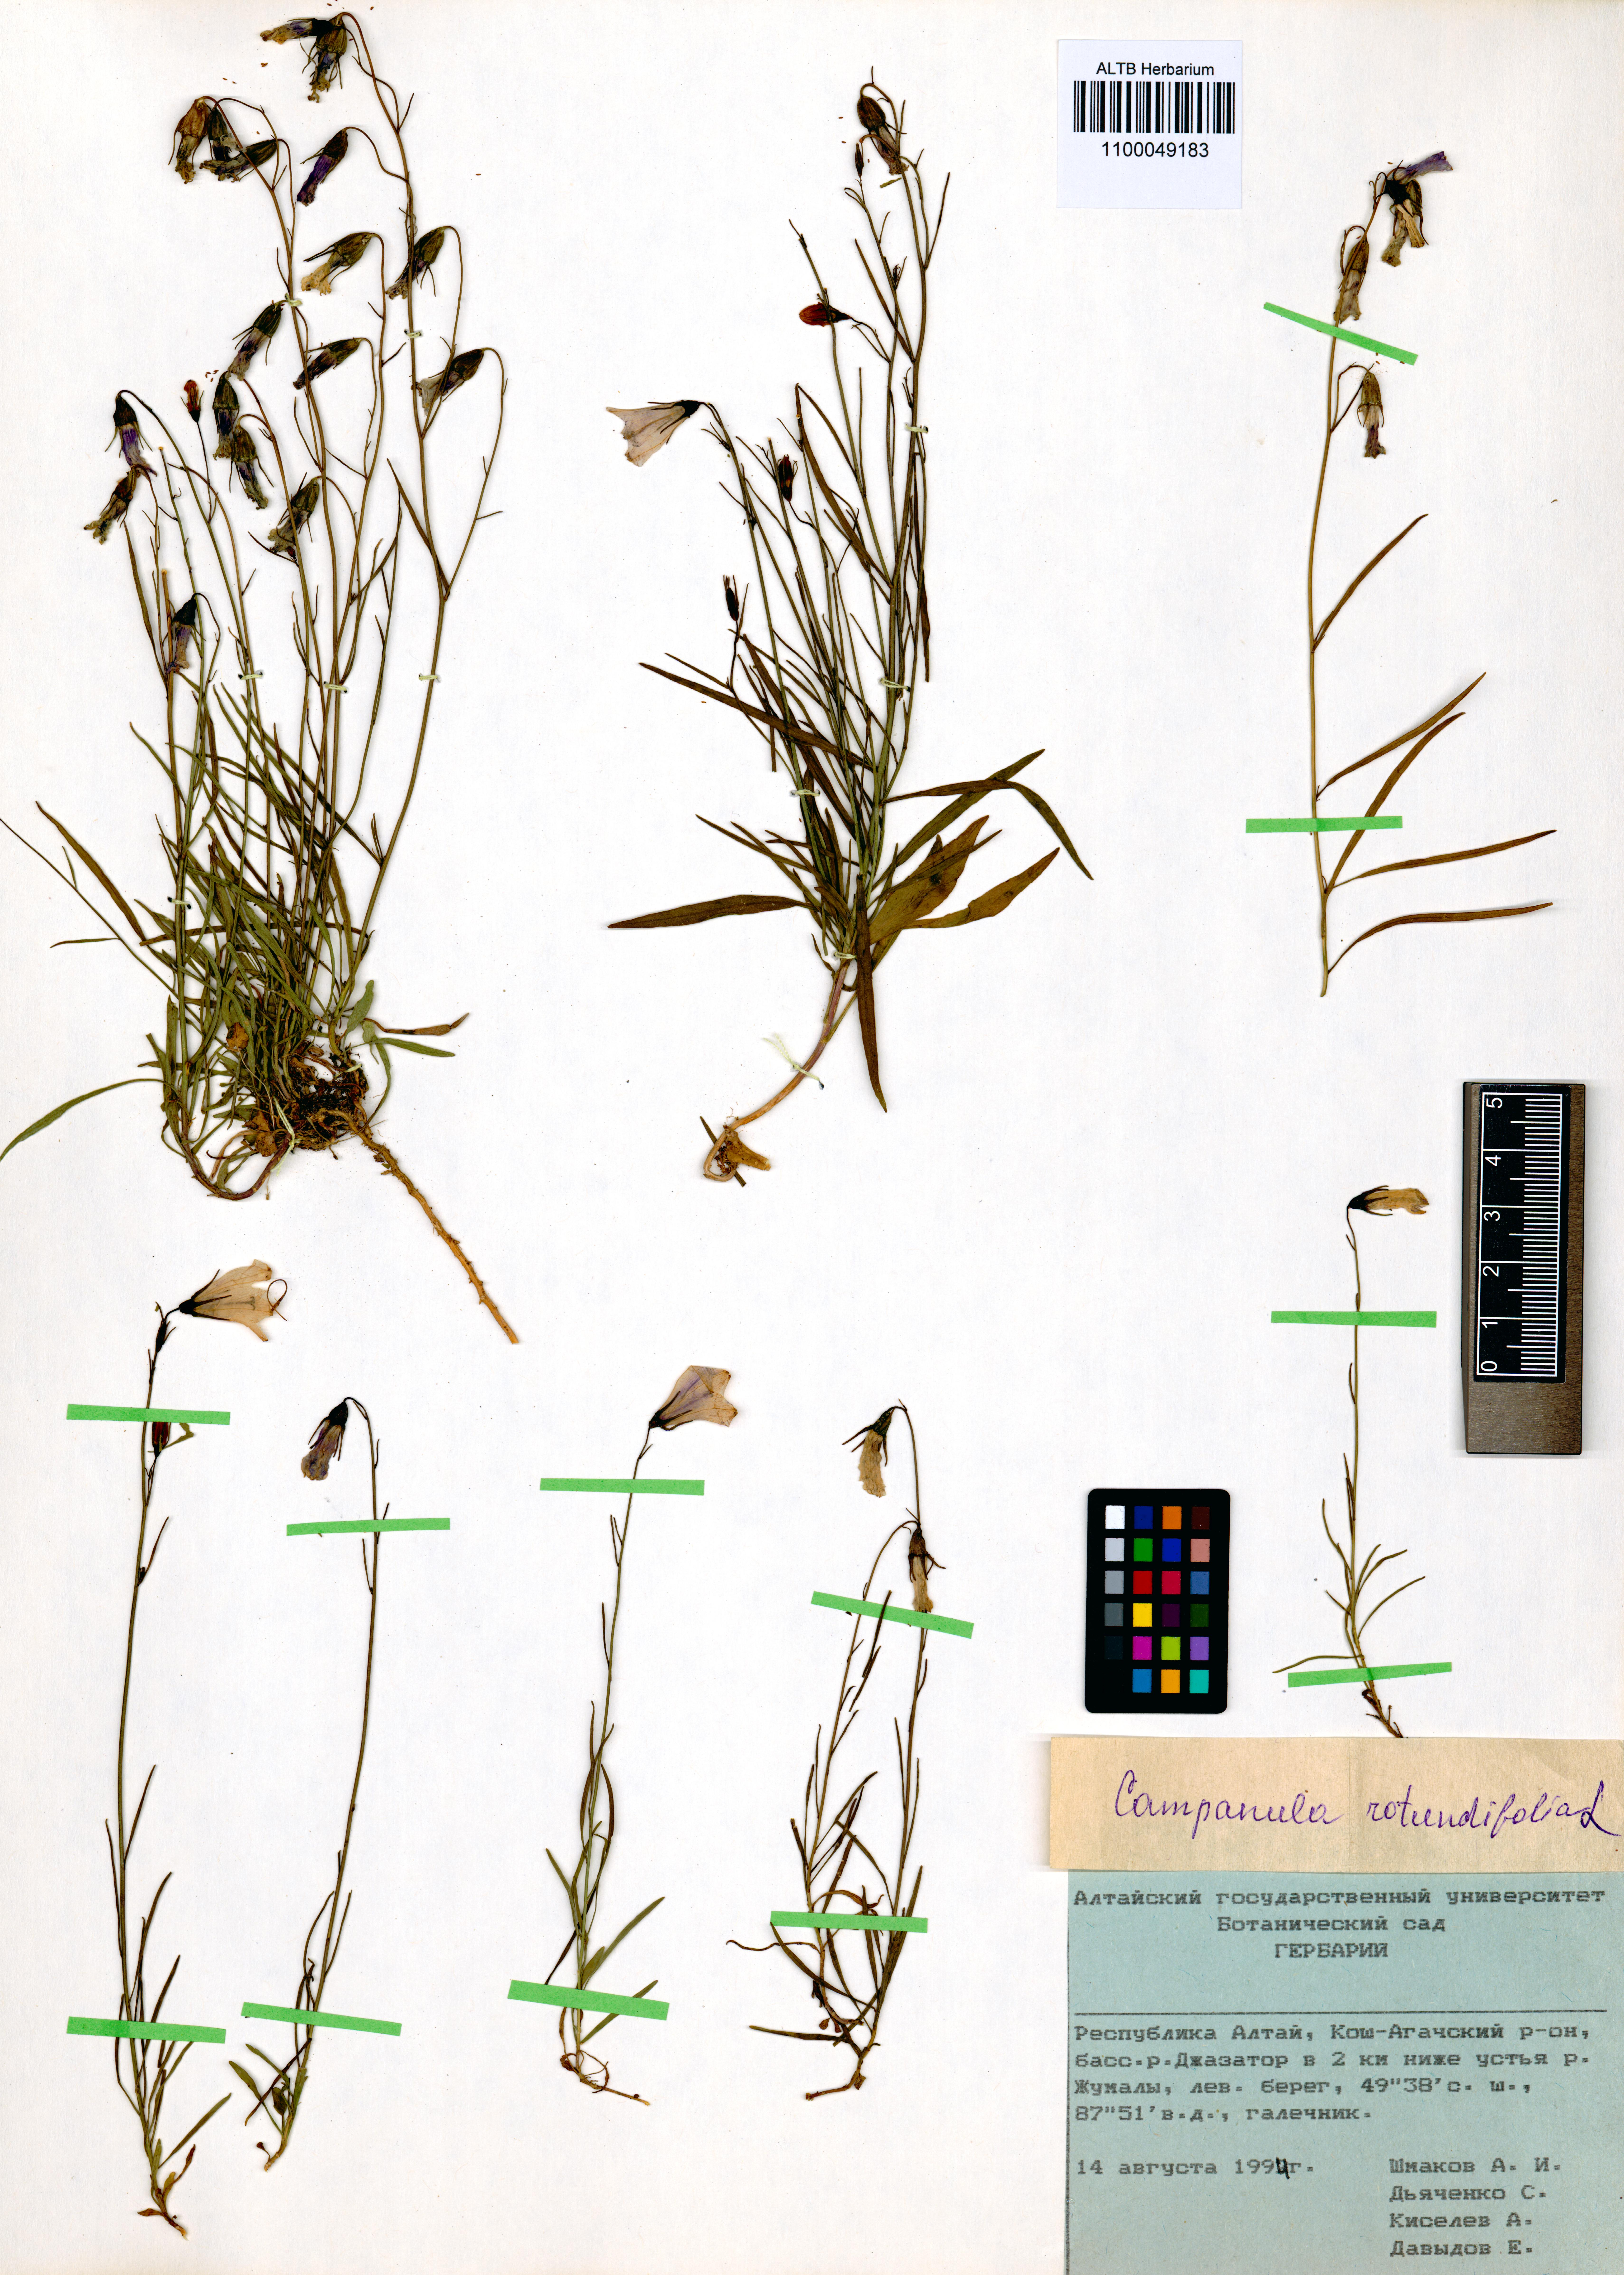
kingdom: Plantae
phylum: Tracheophyta
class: Magnoliopsida
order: Asterales
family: Campanulaceae
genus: Campanula
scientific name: Campanula rotundifolia
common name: Harebell
